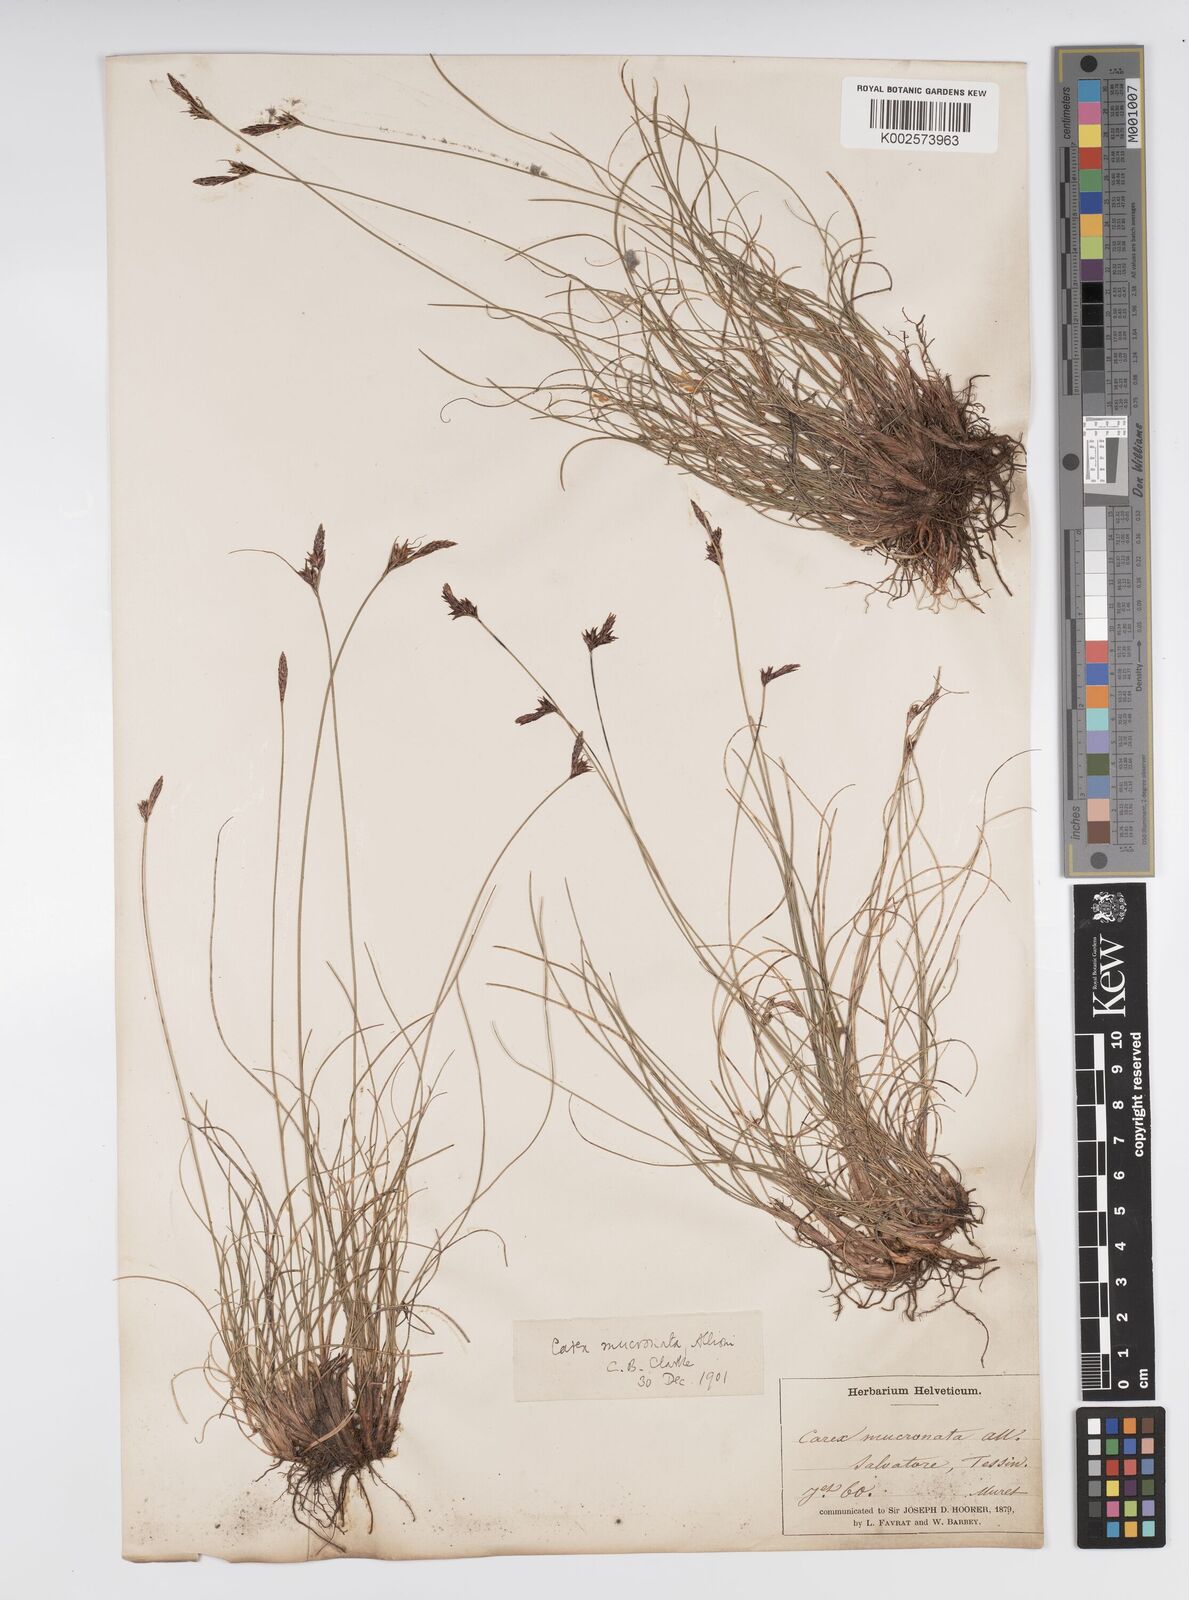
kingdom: Plantae
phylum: Tracheophyta
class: Liliopsida
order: Poales
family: Cyperaceae
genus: Carex
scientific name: Carex mucronata
